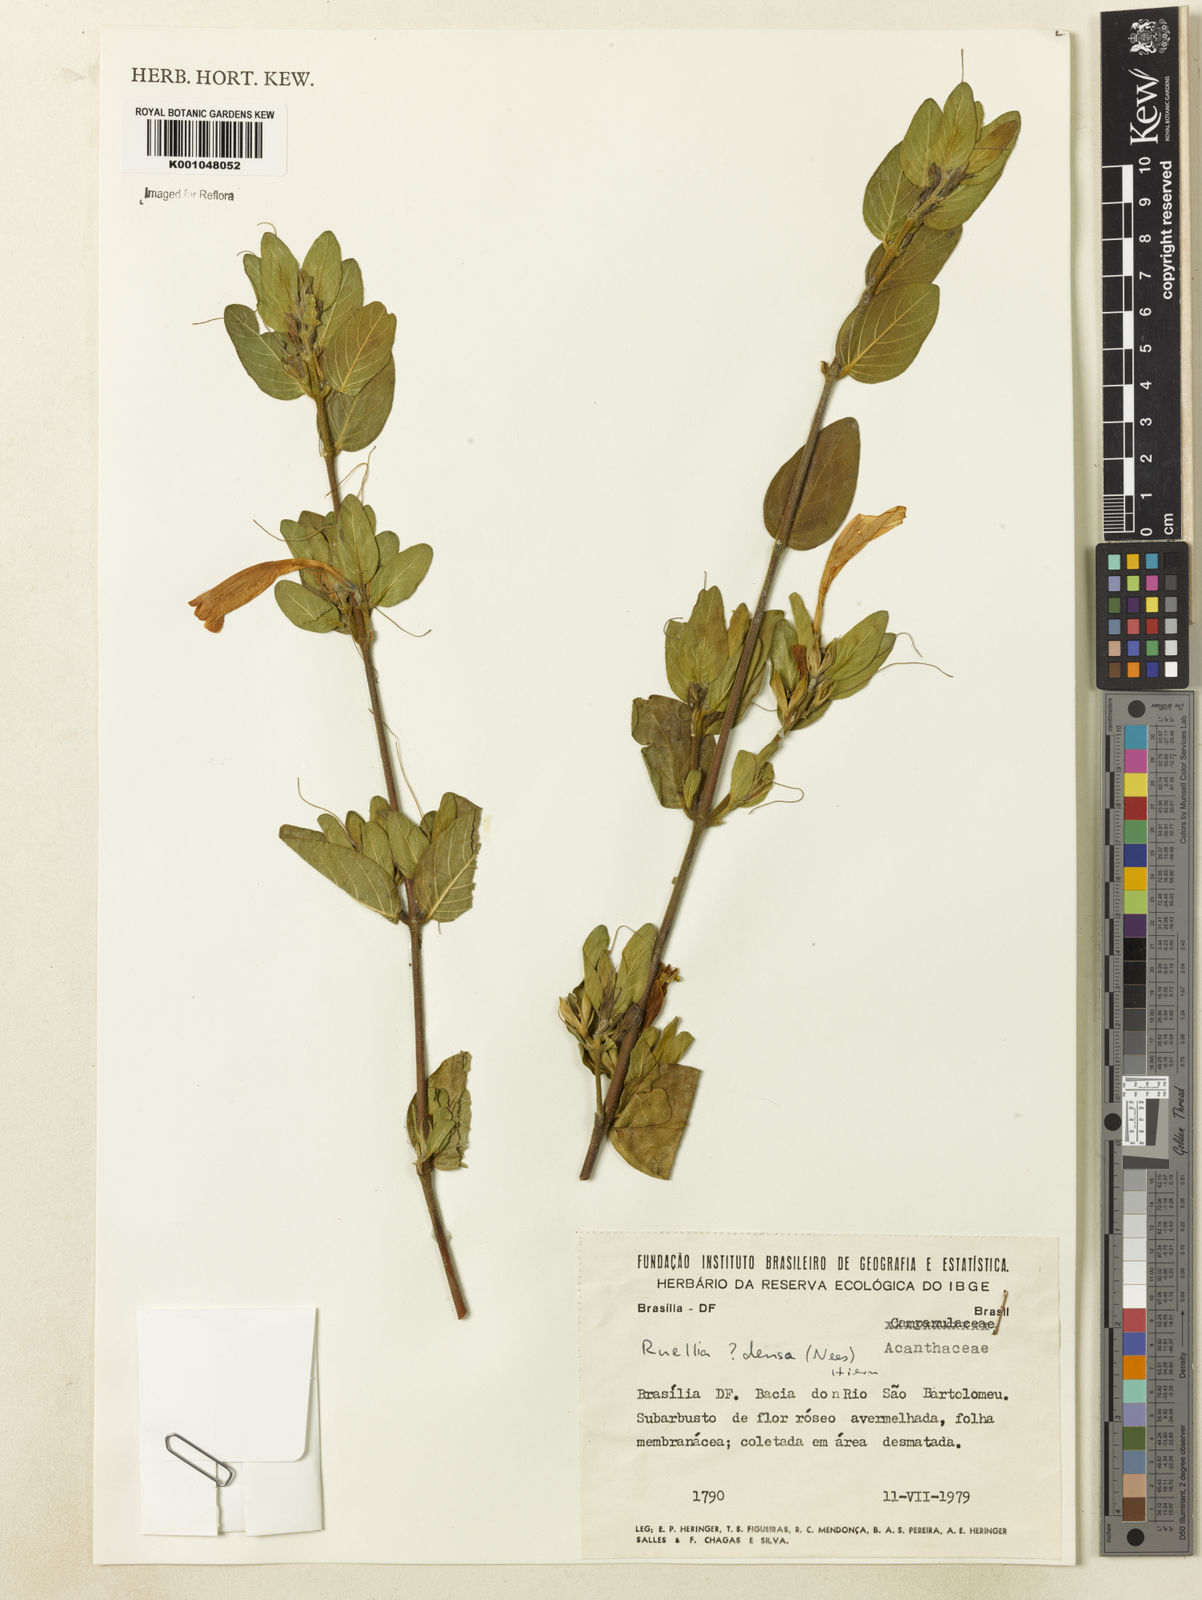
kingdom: Plantae
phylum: Tracheophyta
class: Magnoliopsida
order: Lamiales
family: Acanthaceae
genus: Ruellia
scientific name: Ruellia densa
